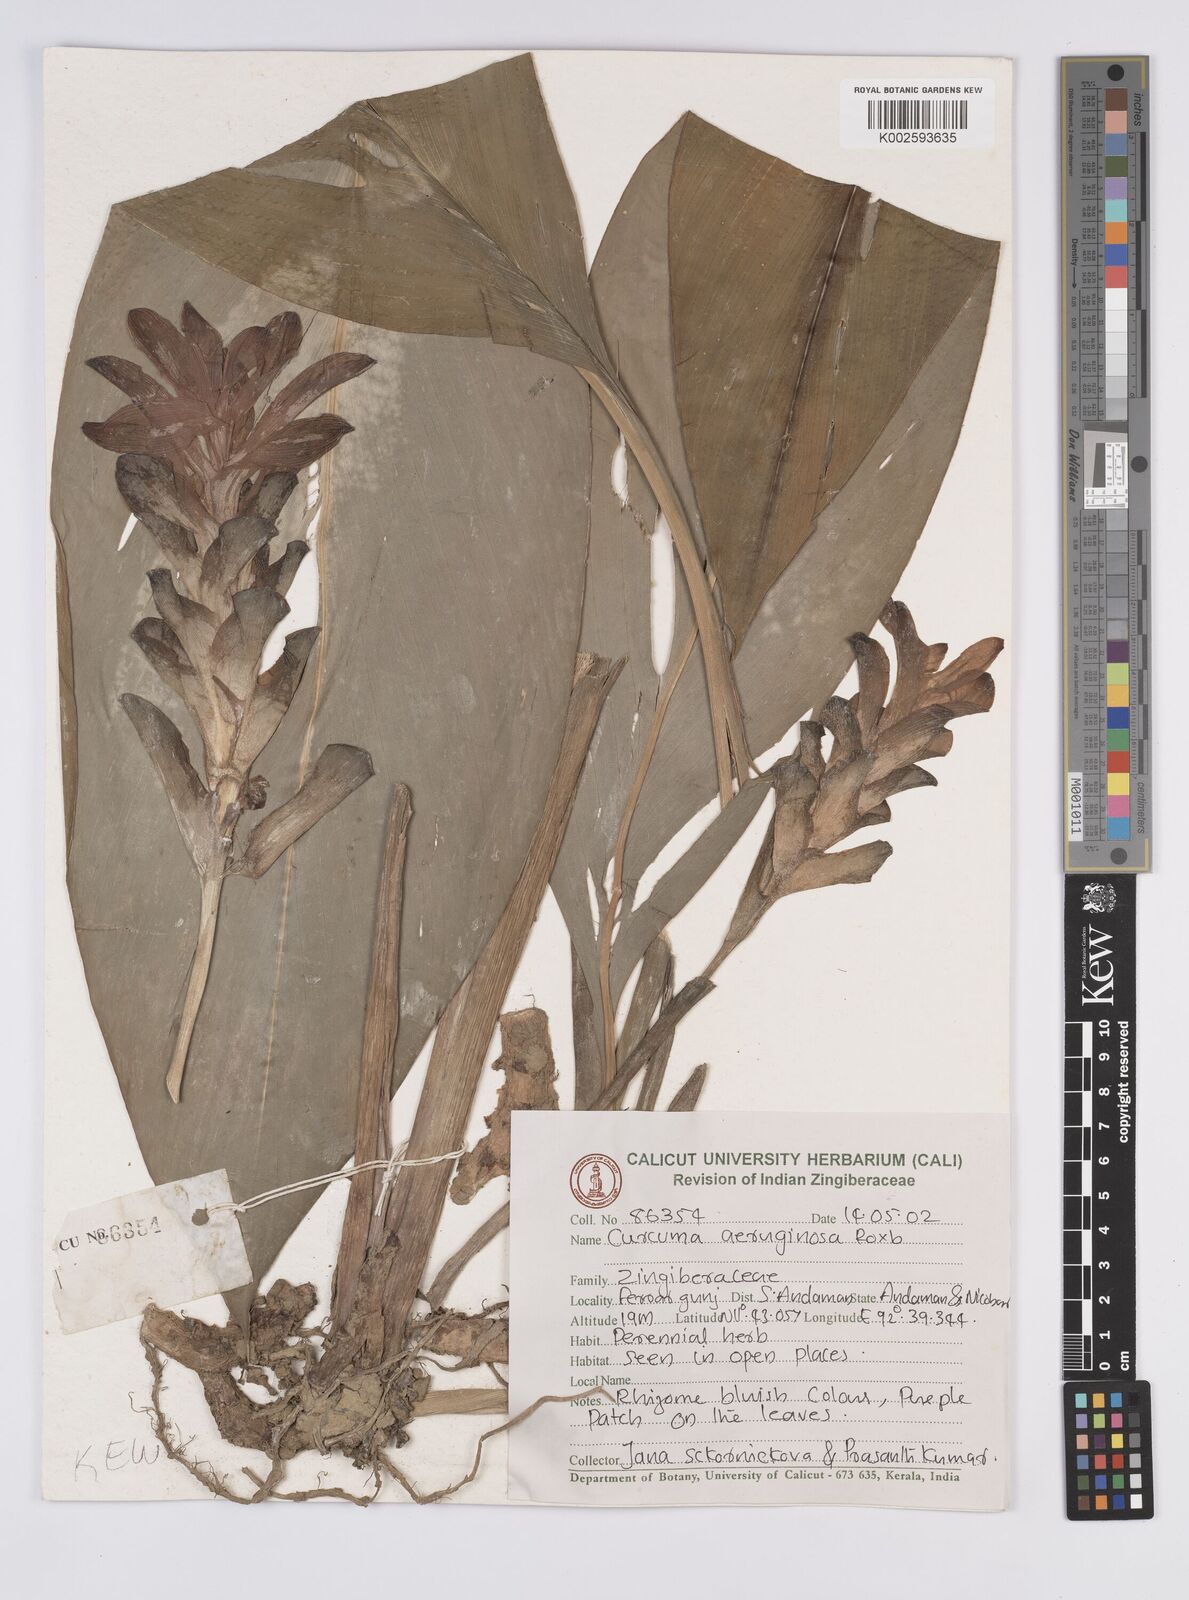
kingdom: Plantae
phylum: Tracheophyta
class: Liliopsida
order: Zingiberales
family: Zingiberaceae
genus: Curcuma
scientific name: Curcuma aeruginosa
